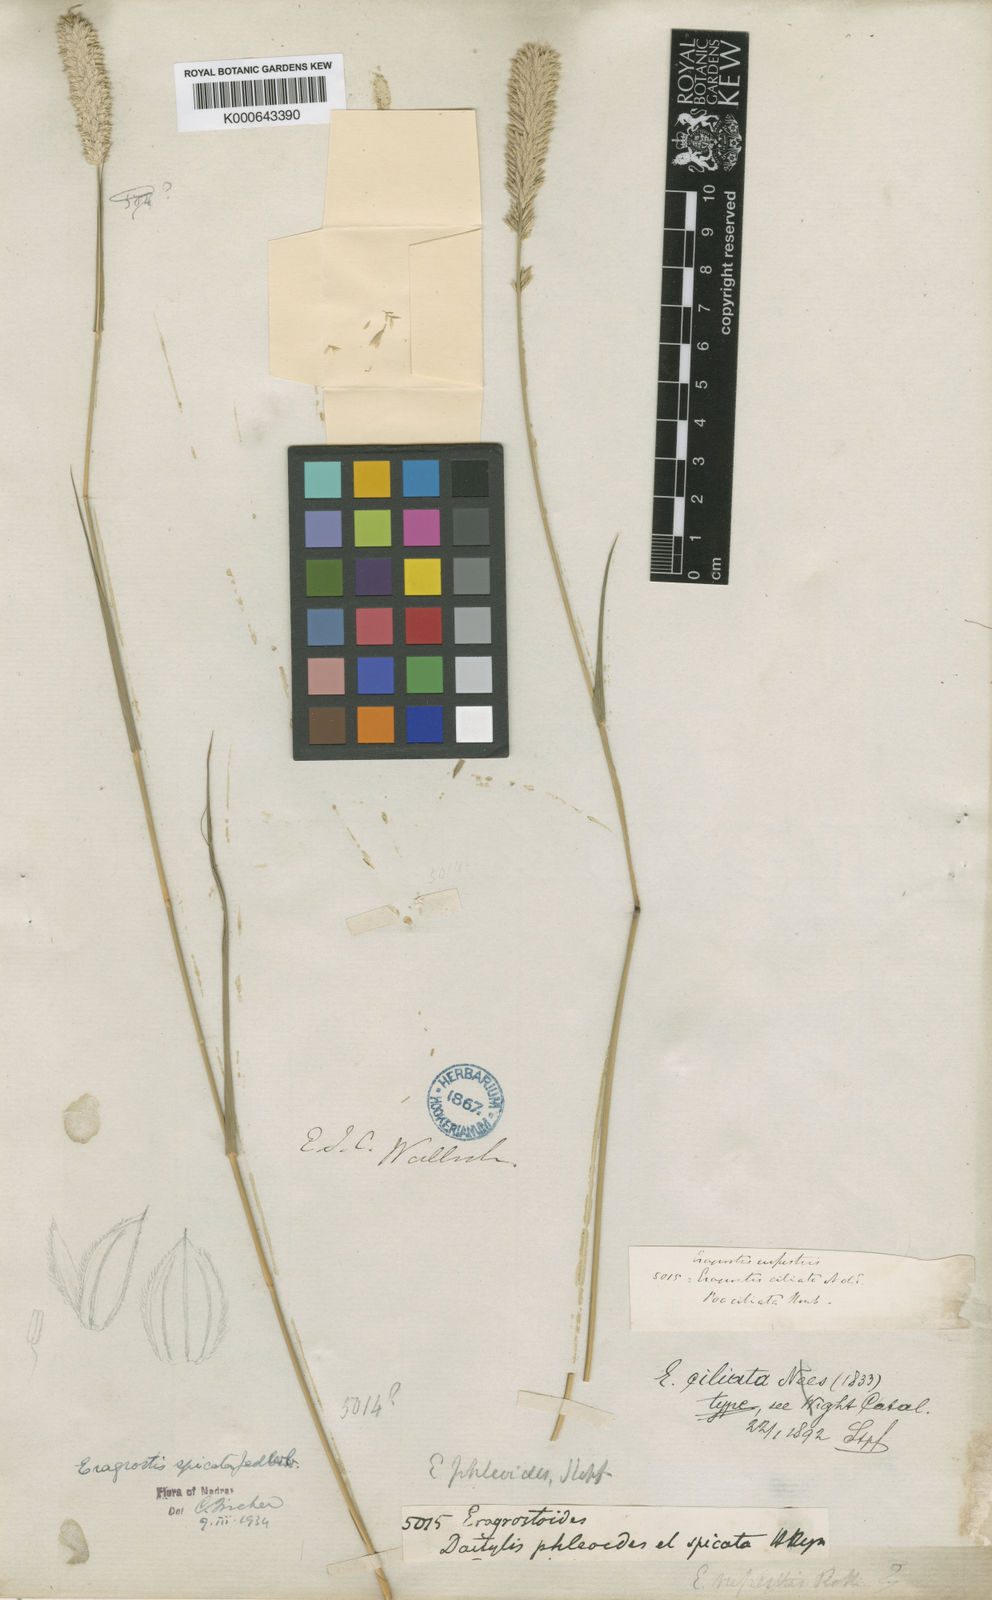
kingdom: Plantae
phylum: Tracheophyta
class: Liliopsida
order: Poales
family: Poaceae
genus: Eragrostis
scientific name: Eragrostis deccanensis
